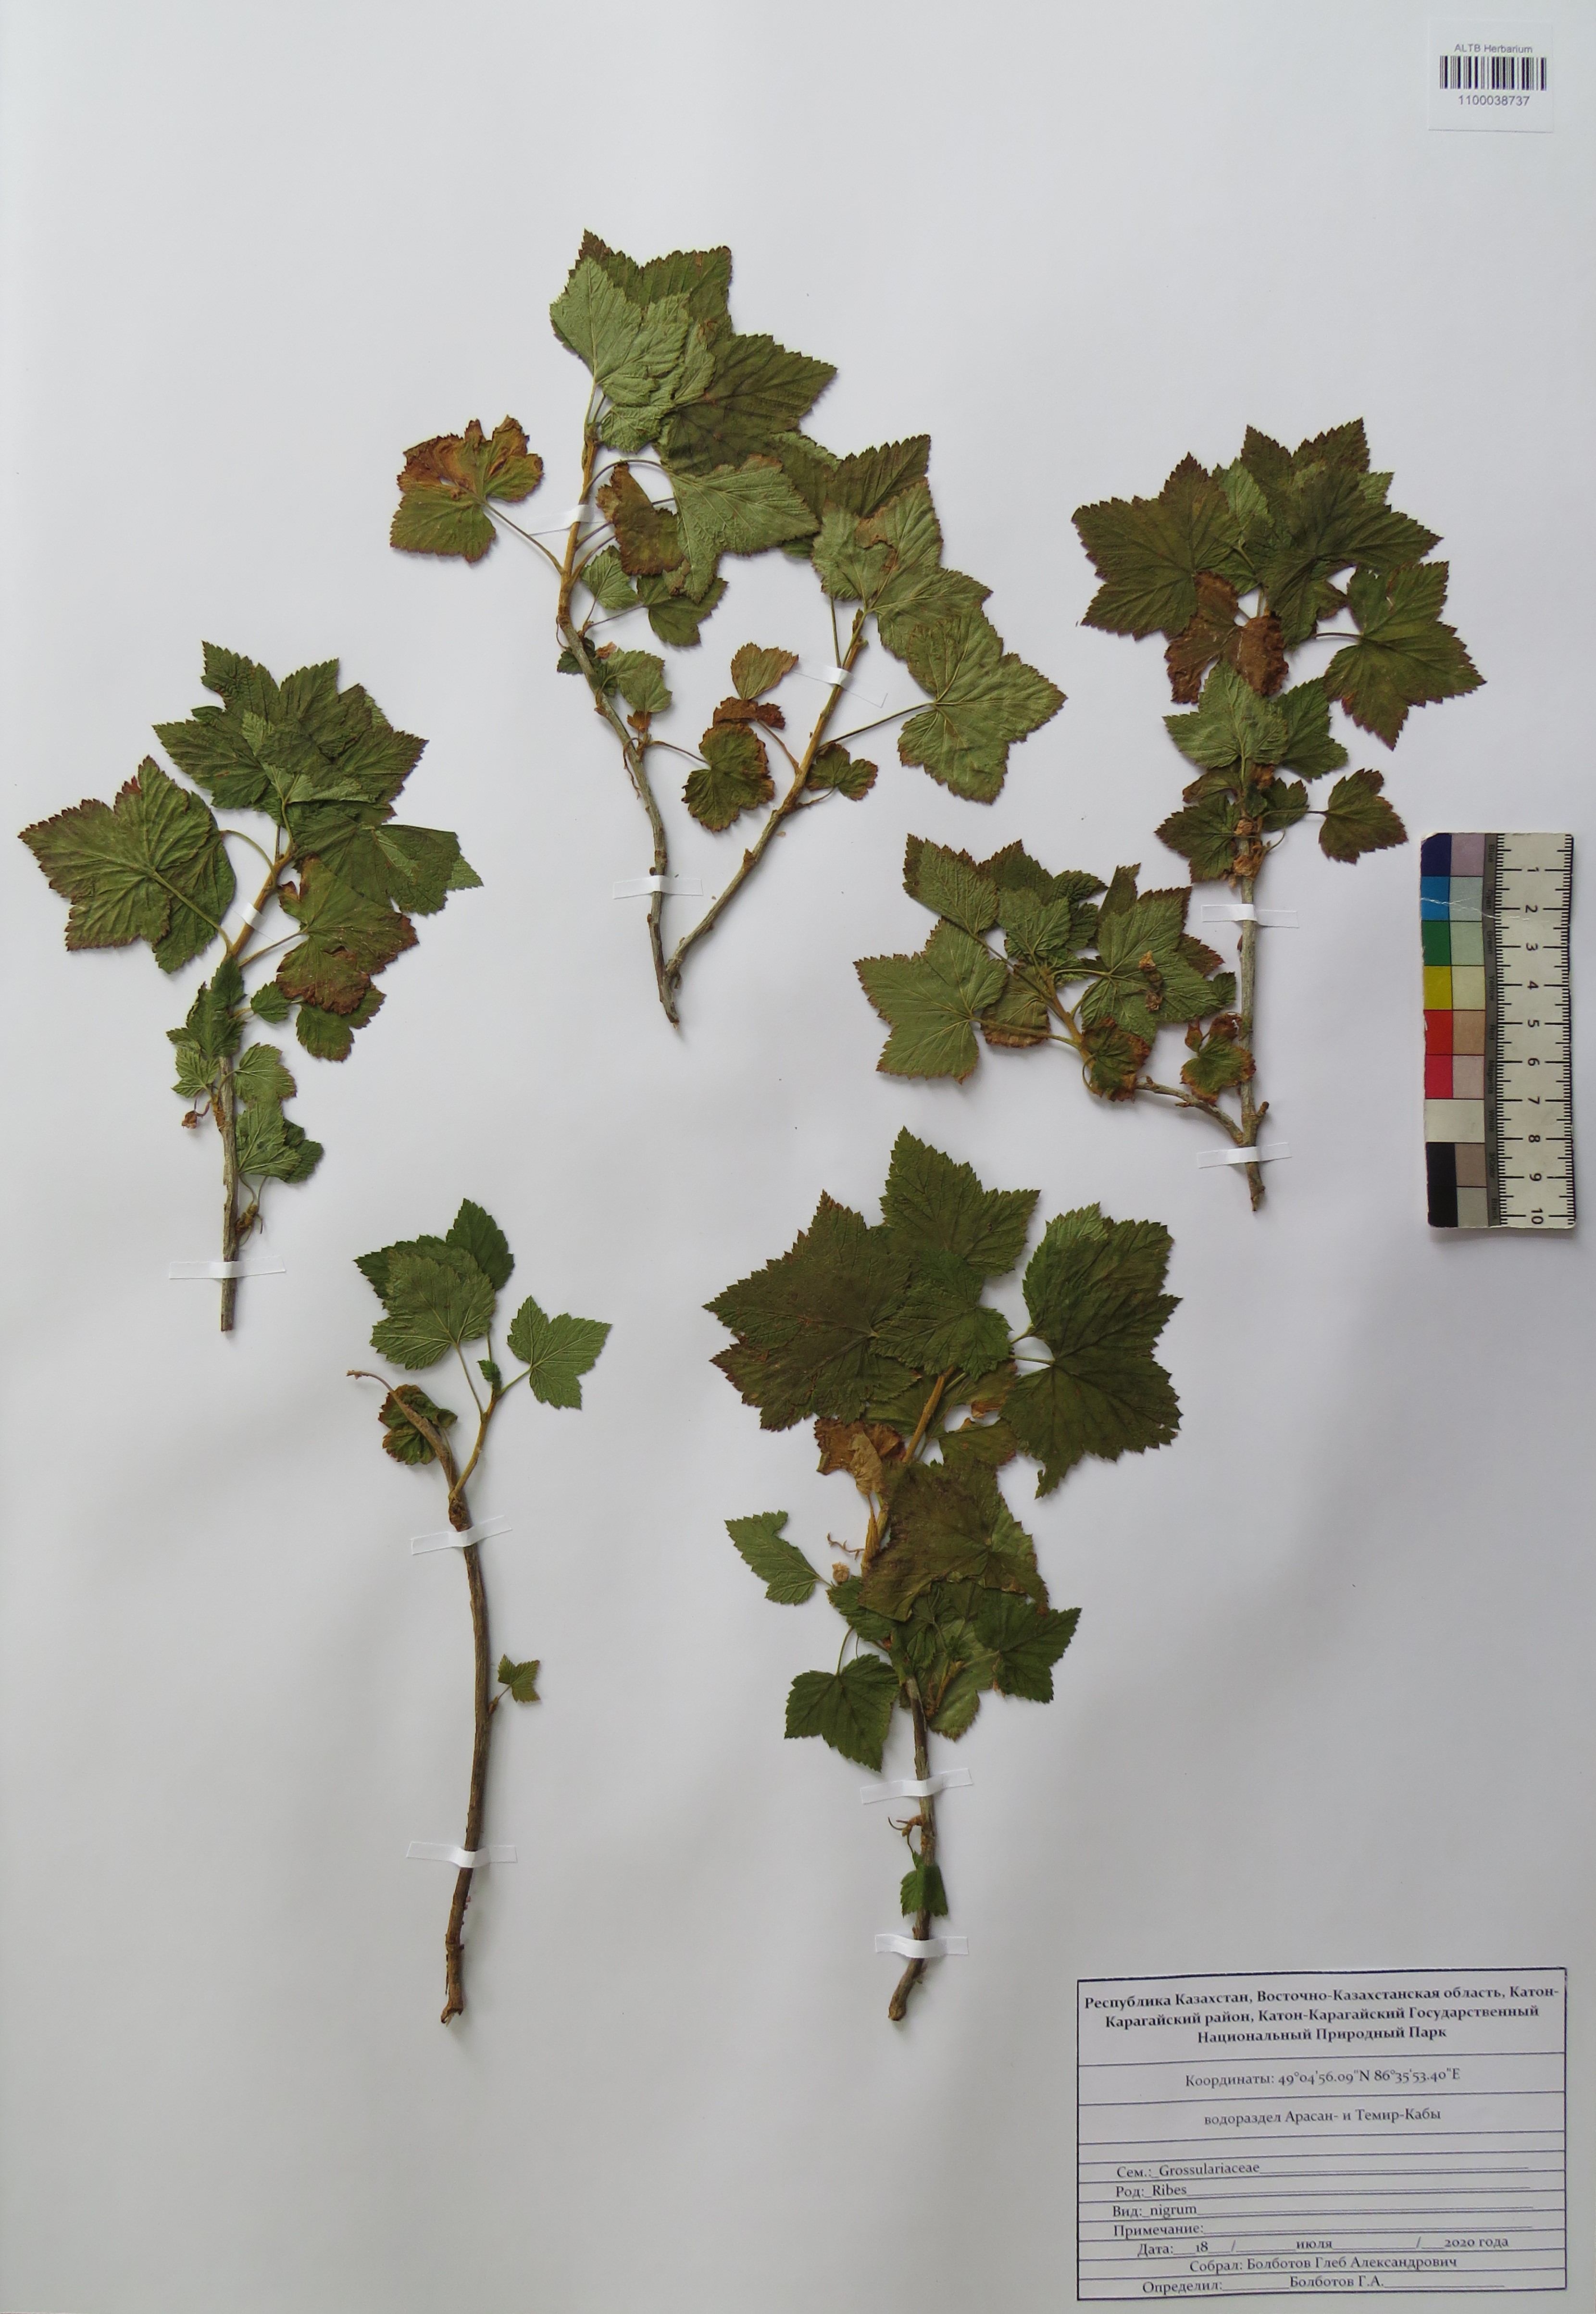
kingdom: Plantae
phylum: Tracheophyta
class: Magnoliopsida
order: Saxifragales
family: Grossulariaceae
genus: Ribes
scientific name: Ribes nigrum
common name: Black currant
